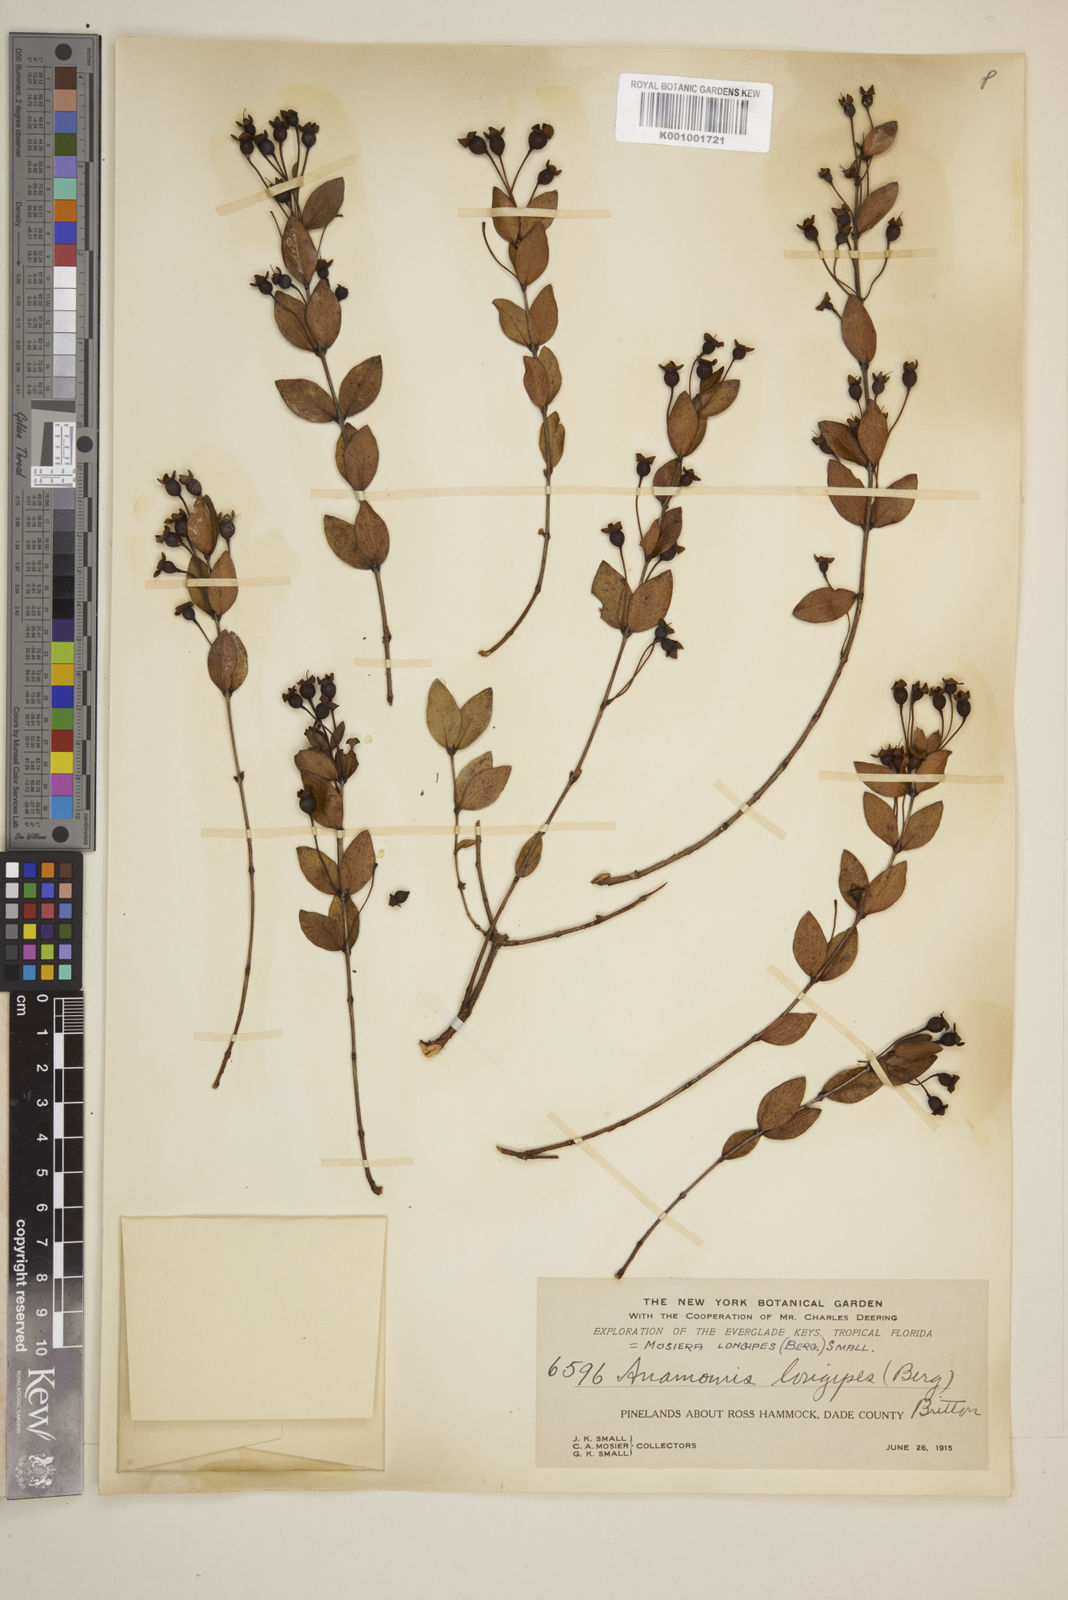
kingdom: Plantae
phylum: Tracheophyta
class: Magnoliopsida
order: Myrtales
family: Myrtaceae
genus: Mosiera
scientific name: Mosiera longipes
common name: Bahama stopper
